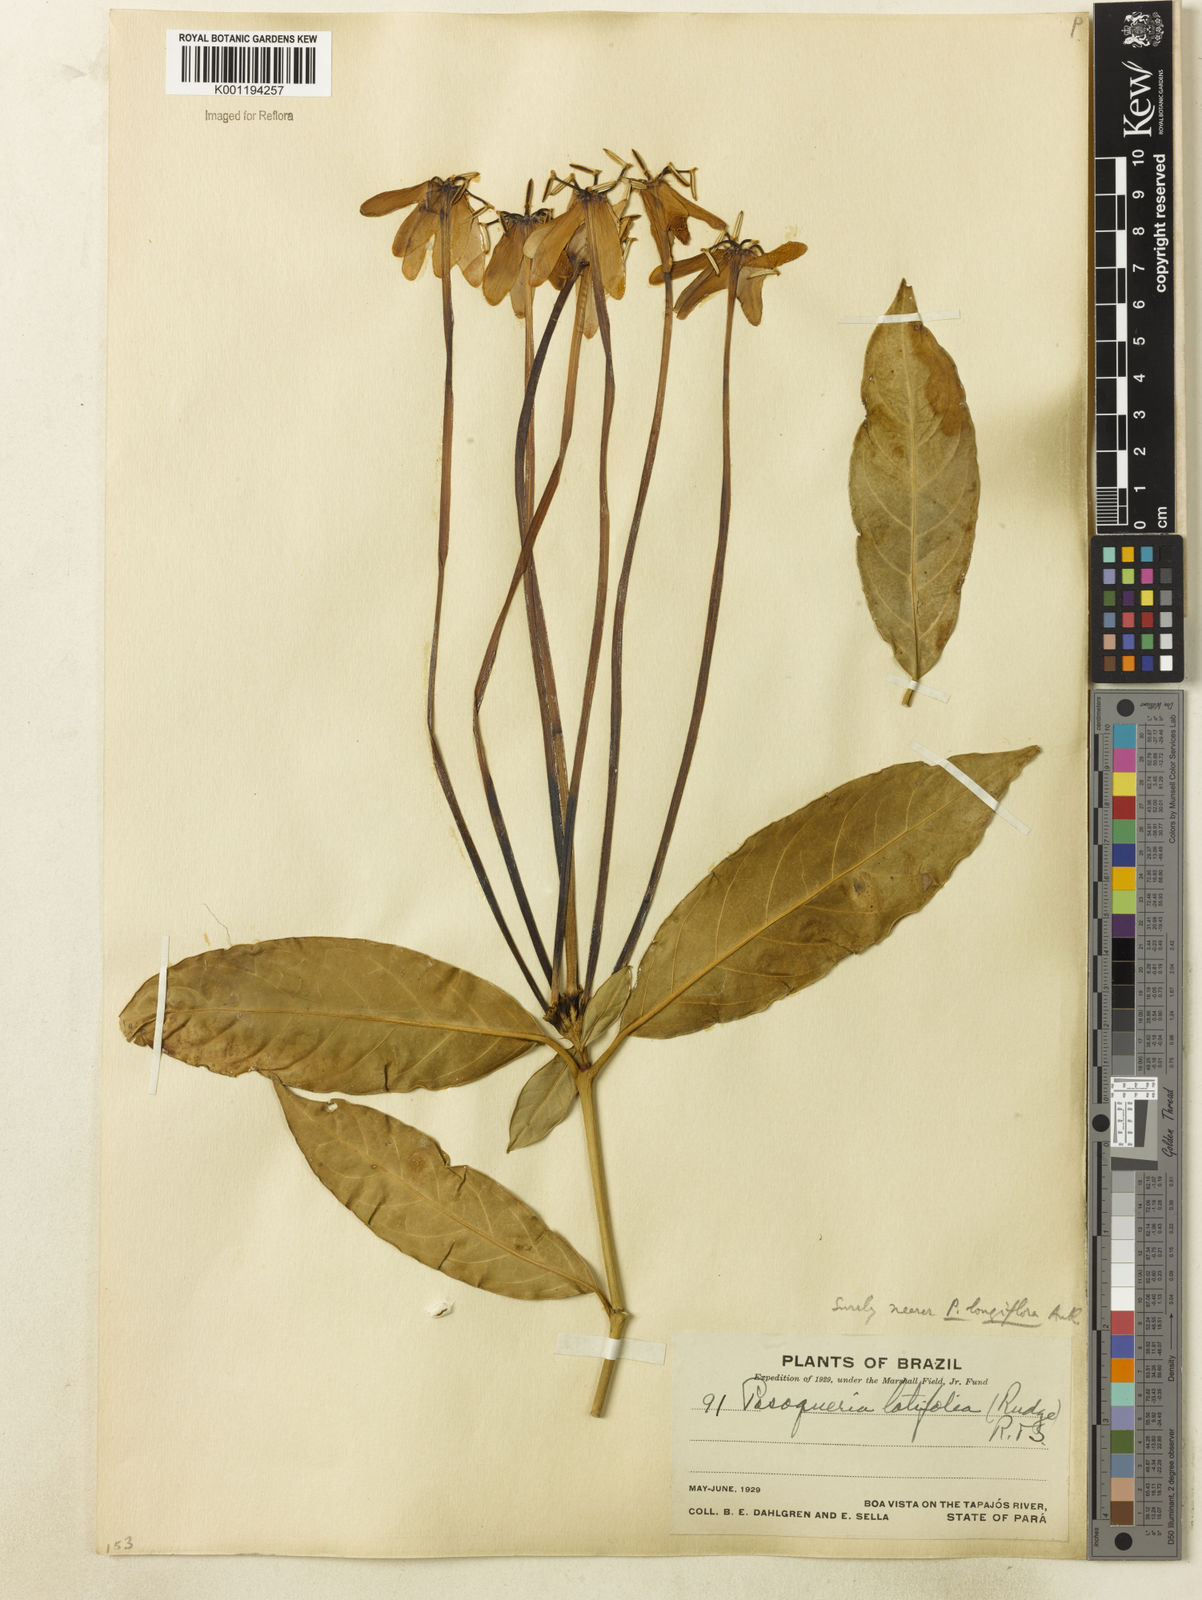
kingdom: Plantae
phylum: Tracheophyta
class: Magnoliopsida
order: Gentianales
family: Rubiaceae
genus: Posoqueria
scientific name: Posoqueria longiflora
